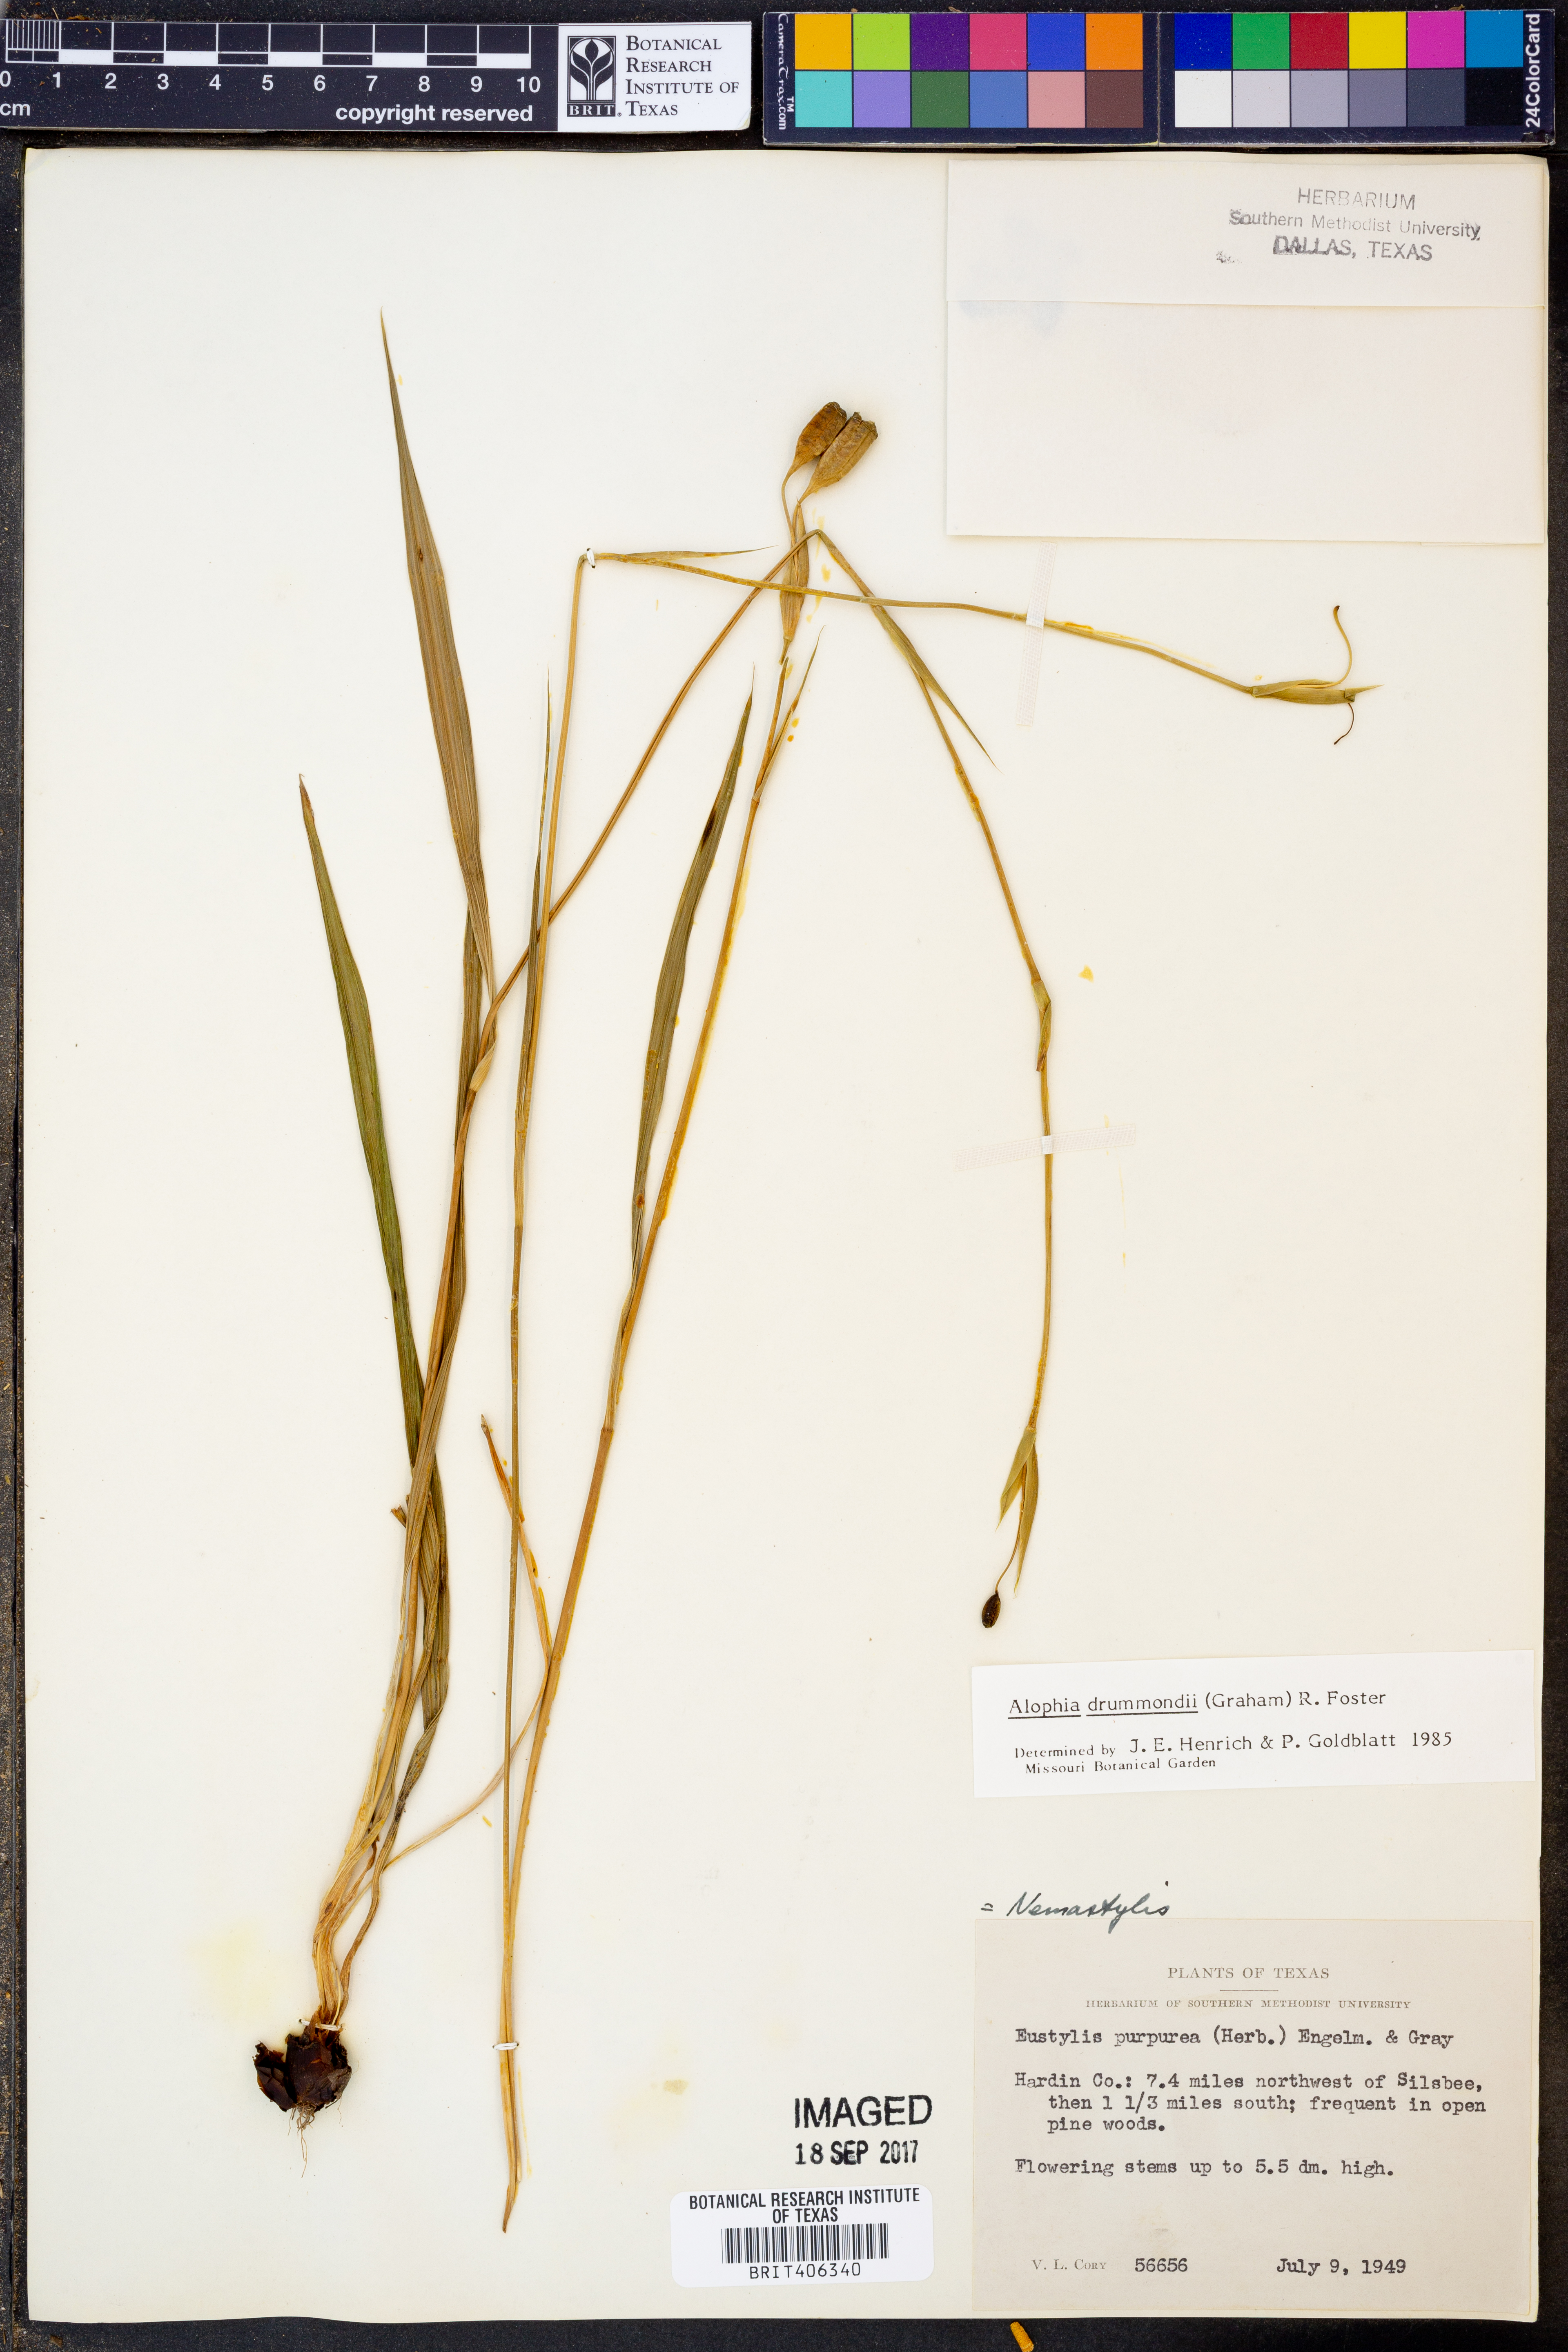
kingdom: Plantae
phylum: Tracheophyta
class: Liliopsida
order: Asparagales
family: Iridaceae
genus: Alophia
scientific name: Alophia drummondii
